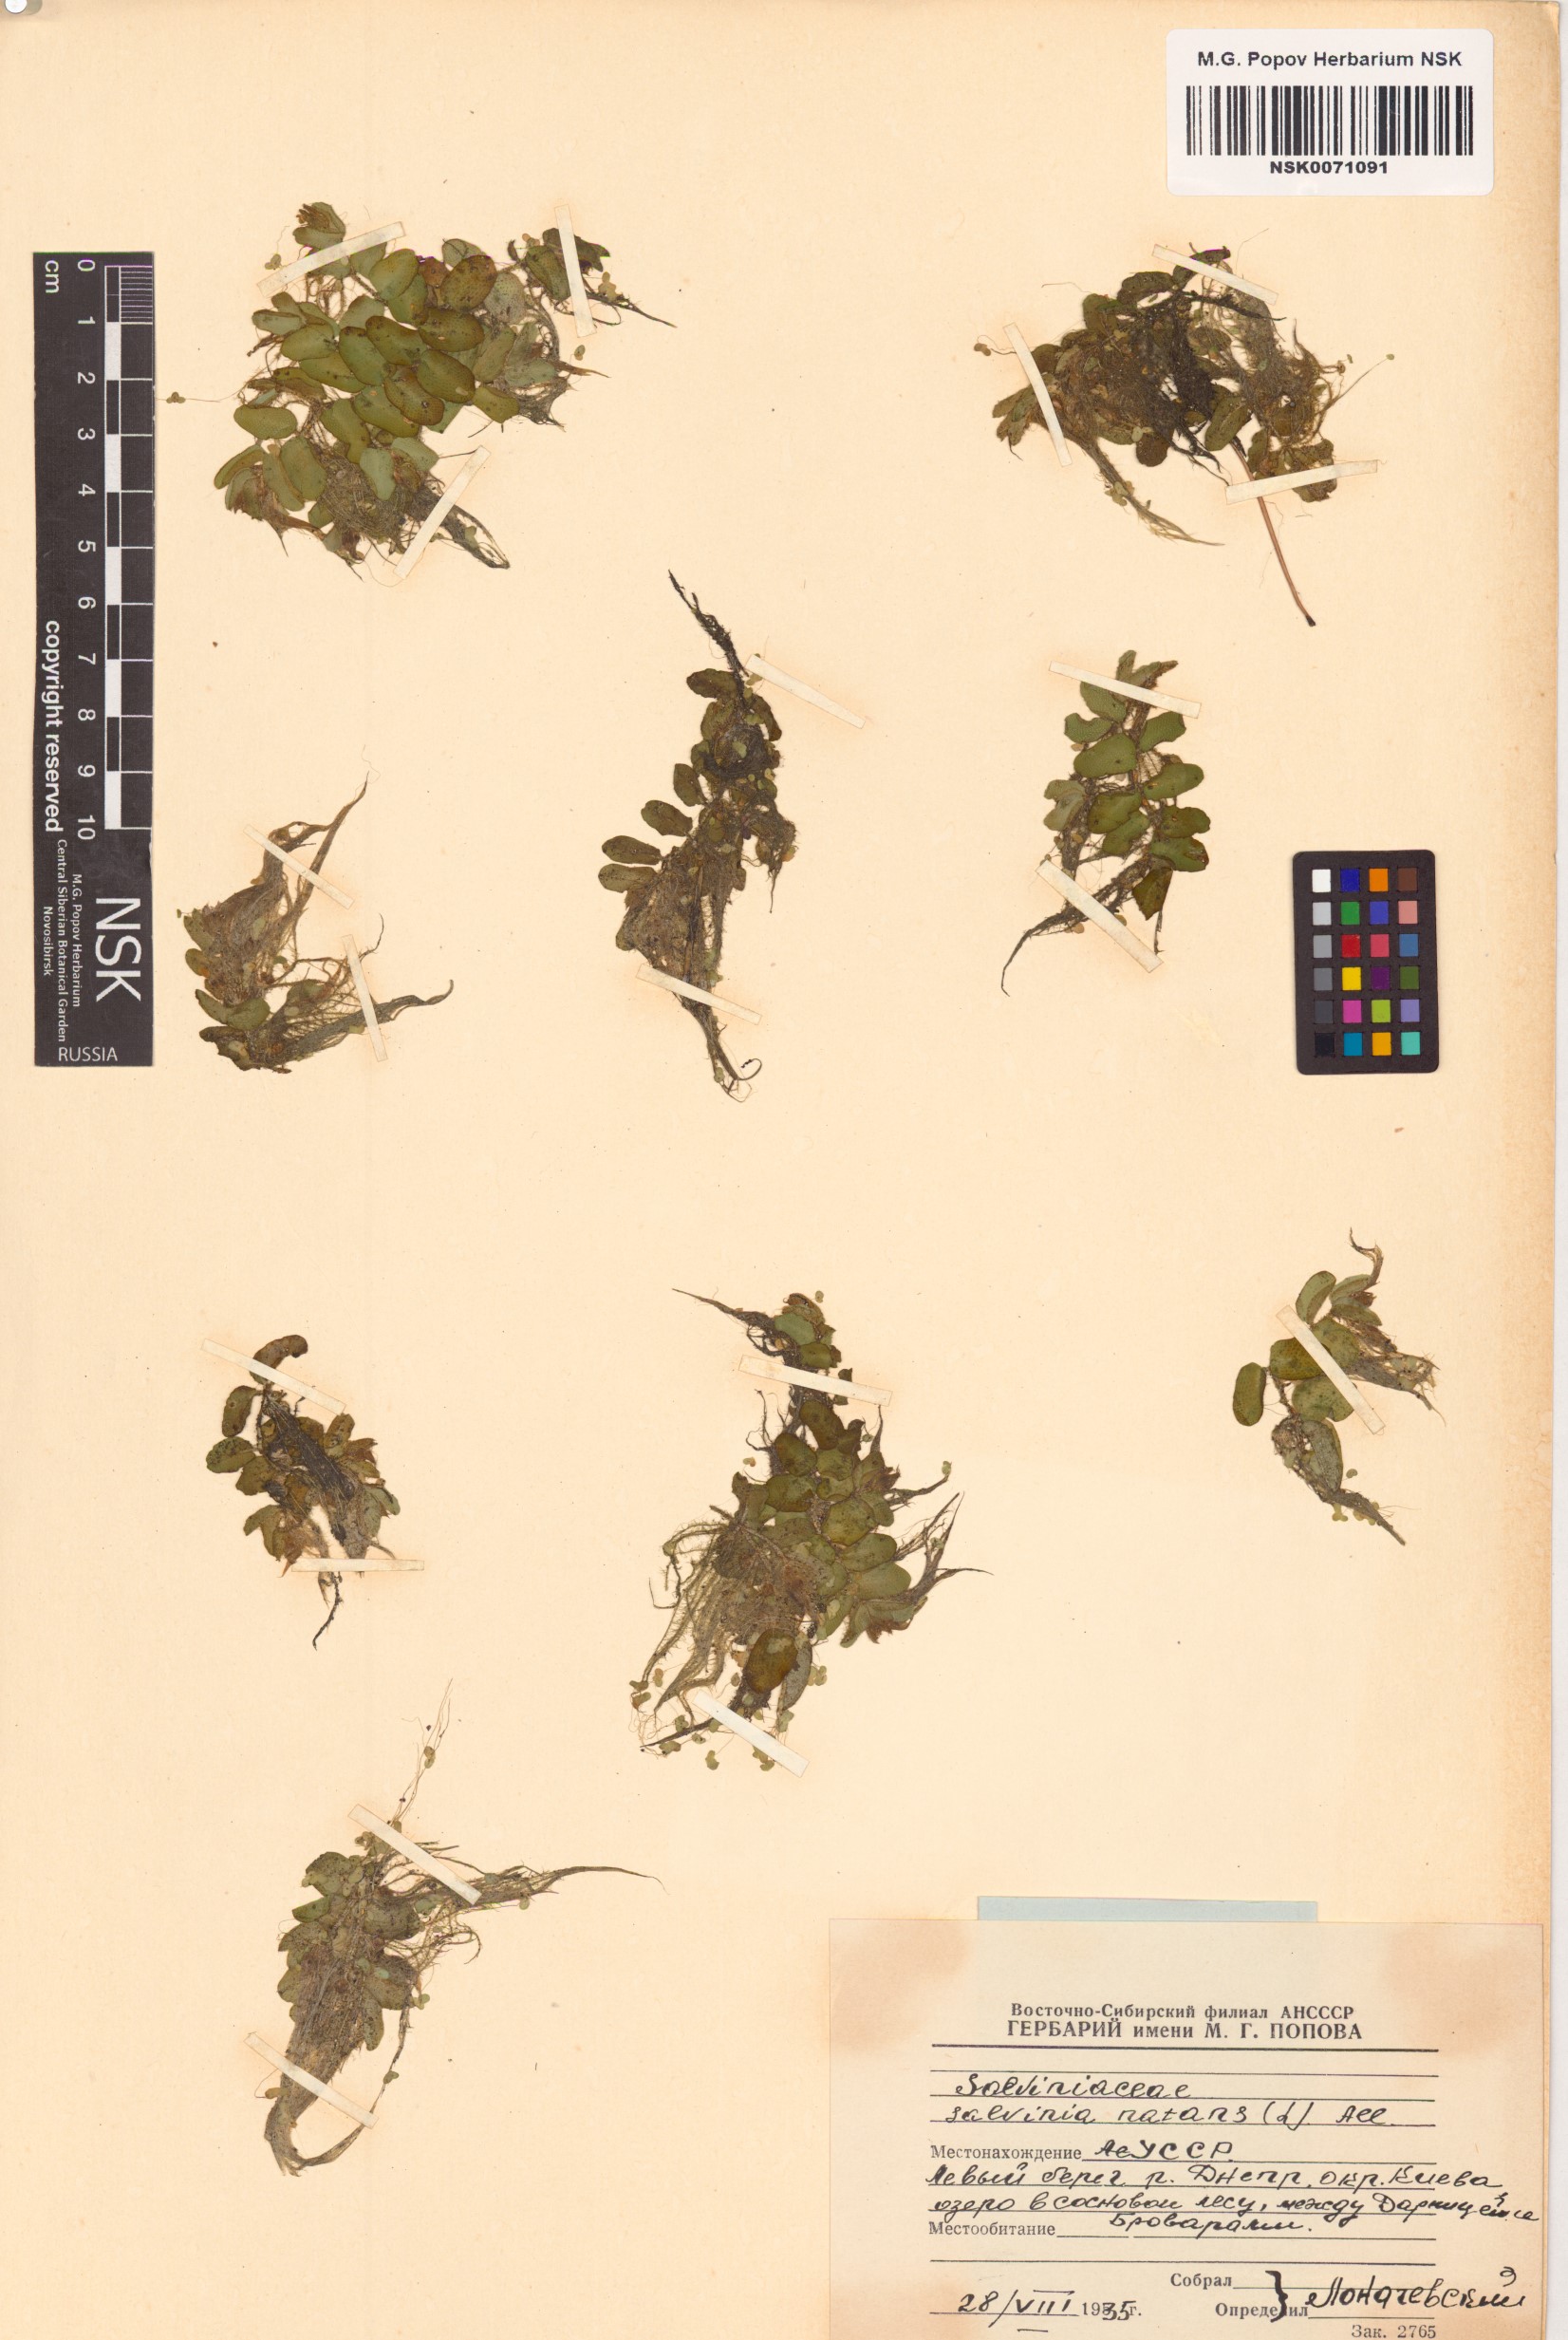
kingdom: Plantae
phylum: Tracheophyta
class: Polypodiopsida
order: Salviniales
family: Salviniaceae
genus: Salvinia
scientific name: Salvinia natans
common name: Floating fern
